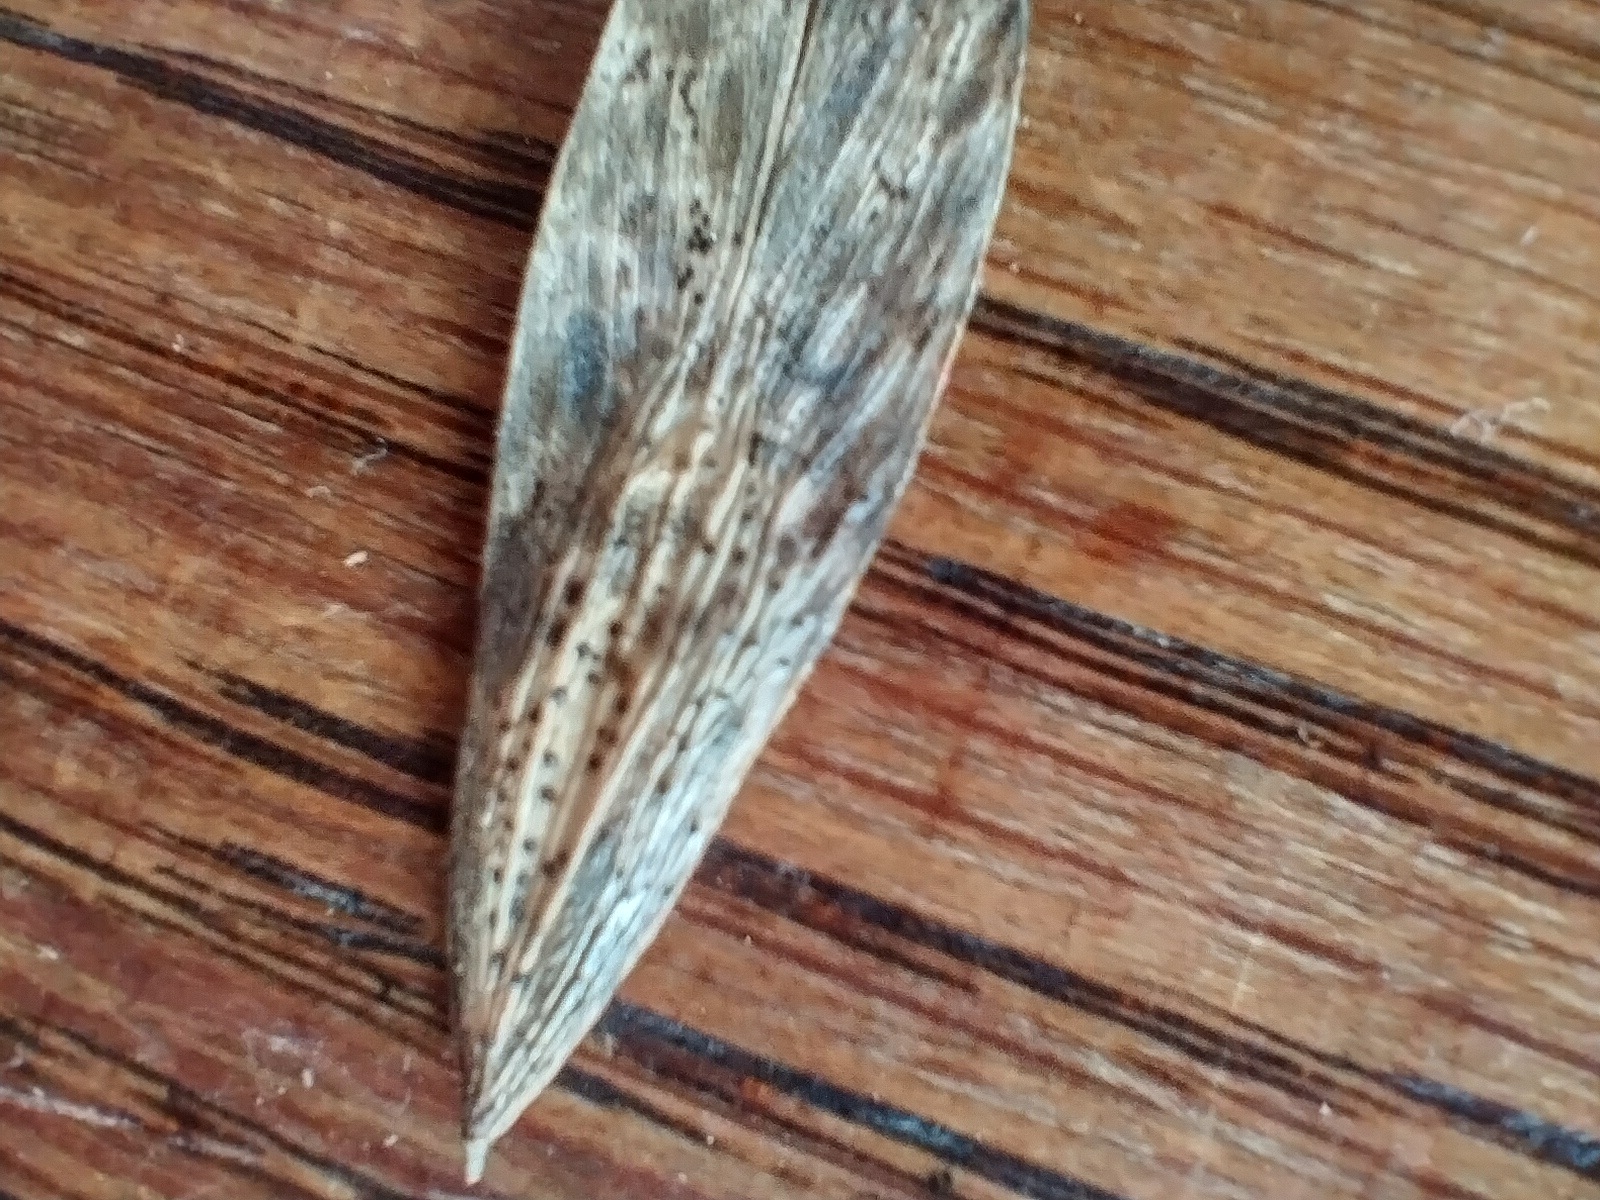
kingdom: Fungi
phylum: Ascomycota
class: Sordariomycetes
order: Diaporthales
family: Diaporthaceae
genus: Diaporthe
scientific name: Diaporthe samaricola
